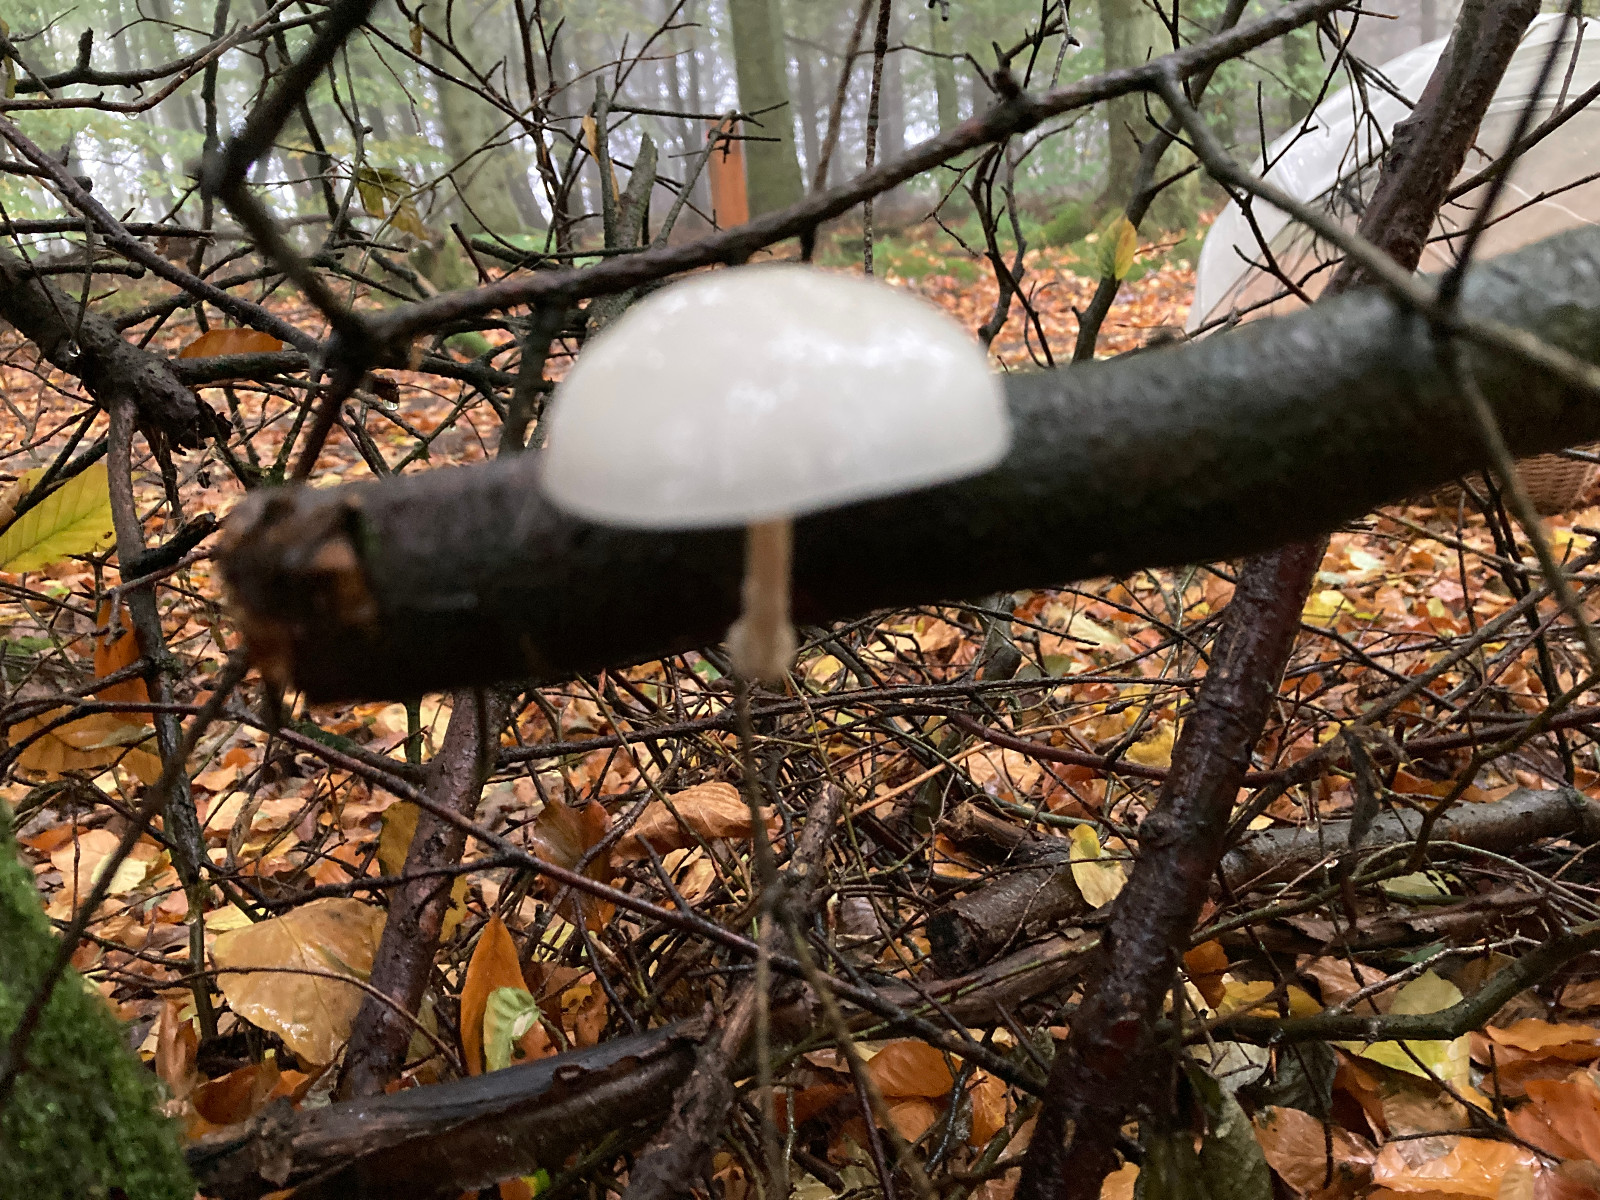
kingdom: Fungi
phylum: Basidiomycota
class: Agaricomycetes
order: Agaricales
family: Physalacriaceae
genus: Mucidula
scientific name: Mucidula mucida
